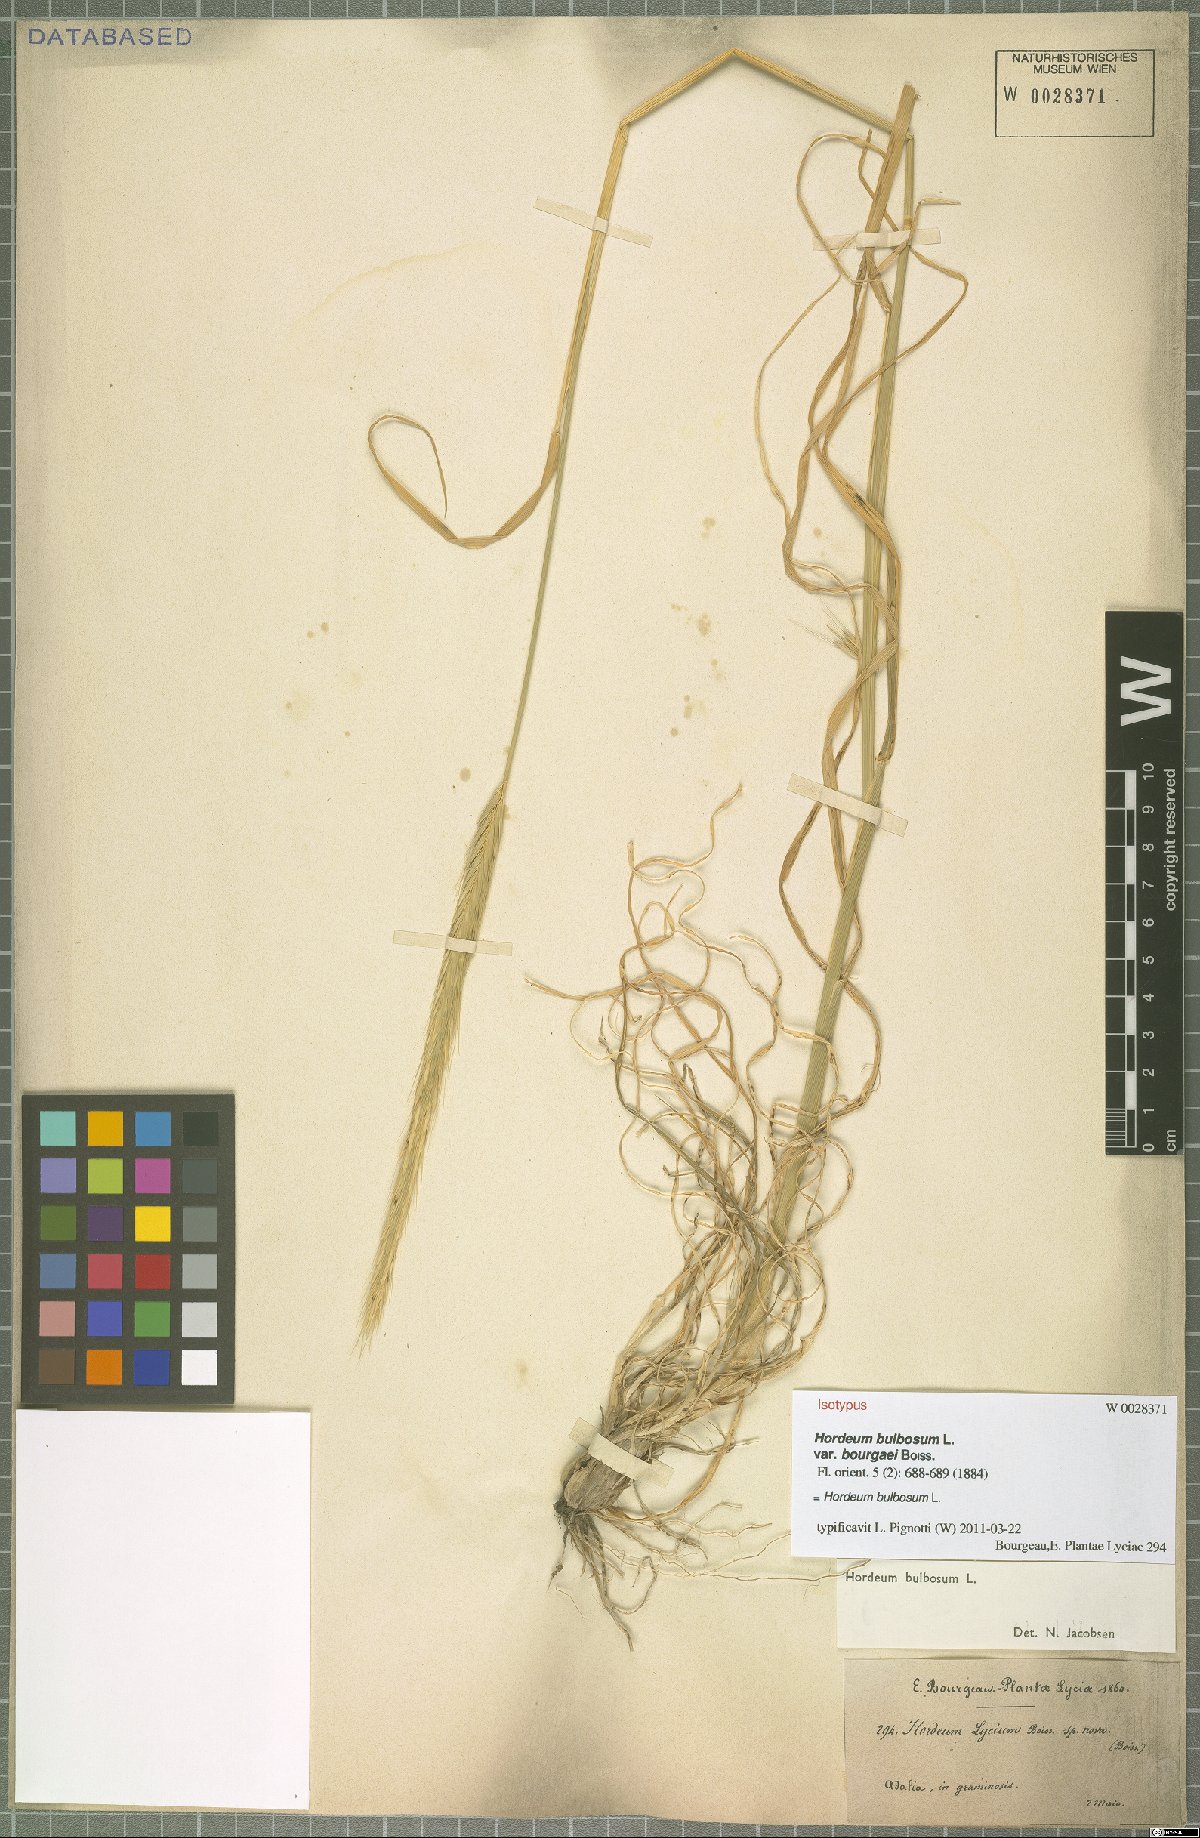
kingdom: Plantae
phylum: Tracheophyta
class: Liliopsida
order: Poales
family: Poaceae
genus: Hordeum
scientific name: Hordeum bulbosum
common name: Bulbous barley
